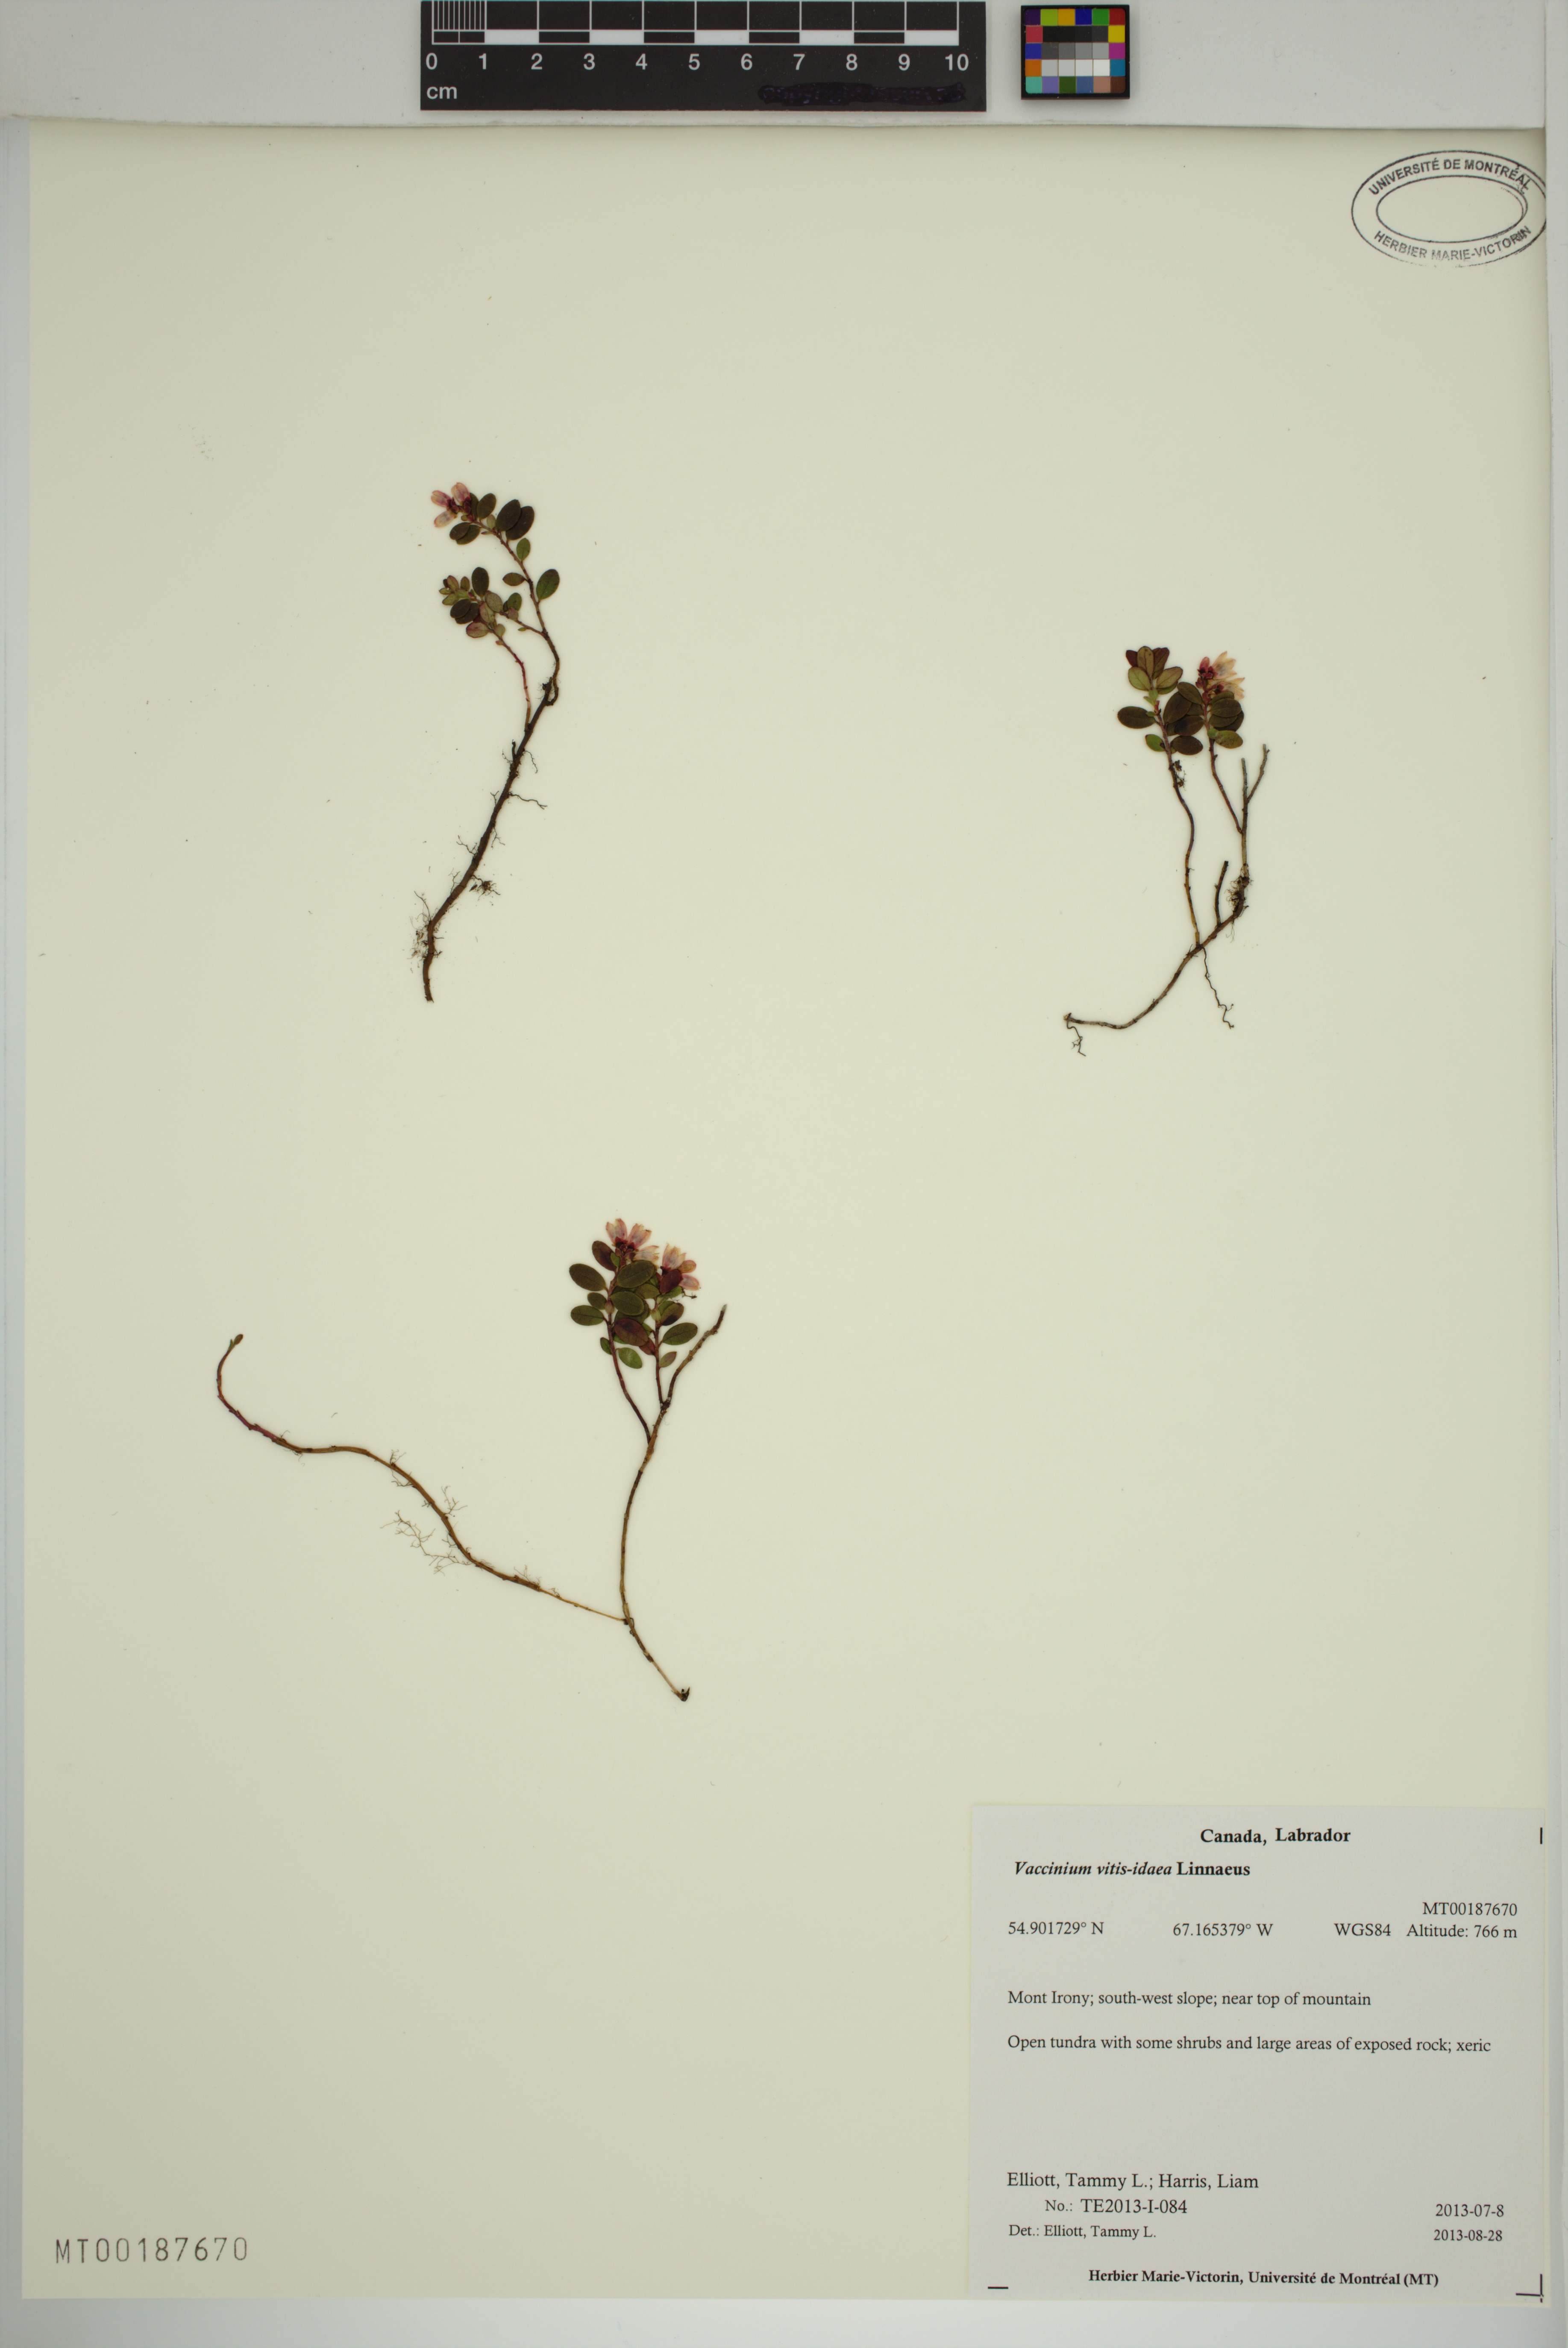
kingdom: Plantae
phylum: Tracheophyta
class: Magnoliopsida
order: Ericales
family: Ericaceae
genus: Vaccinium
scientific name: Vaccinium vitis-idaea
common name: Cowberry
